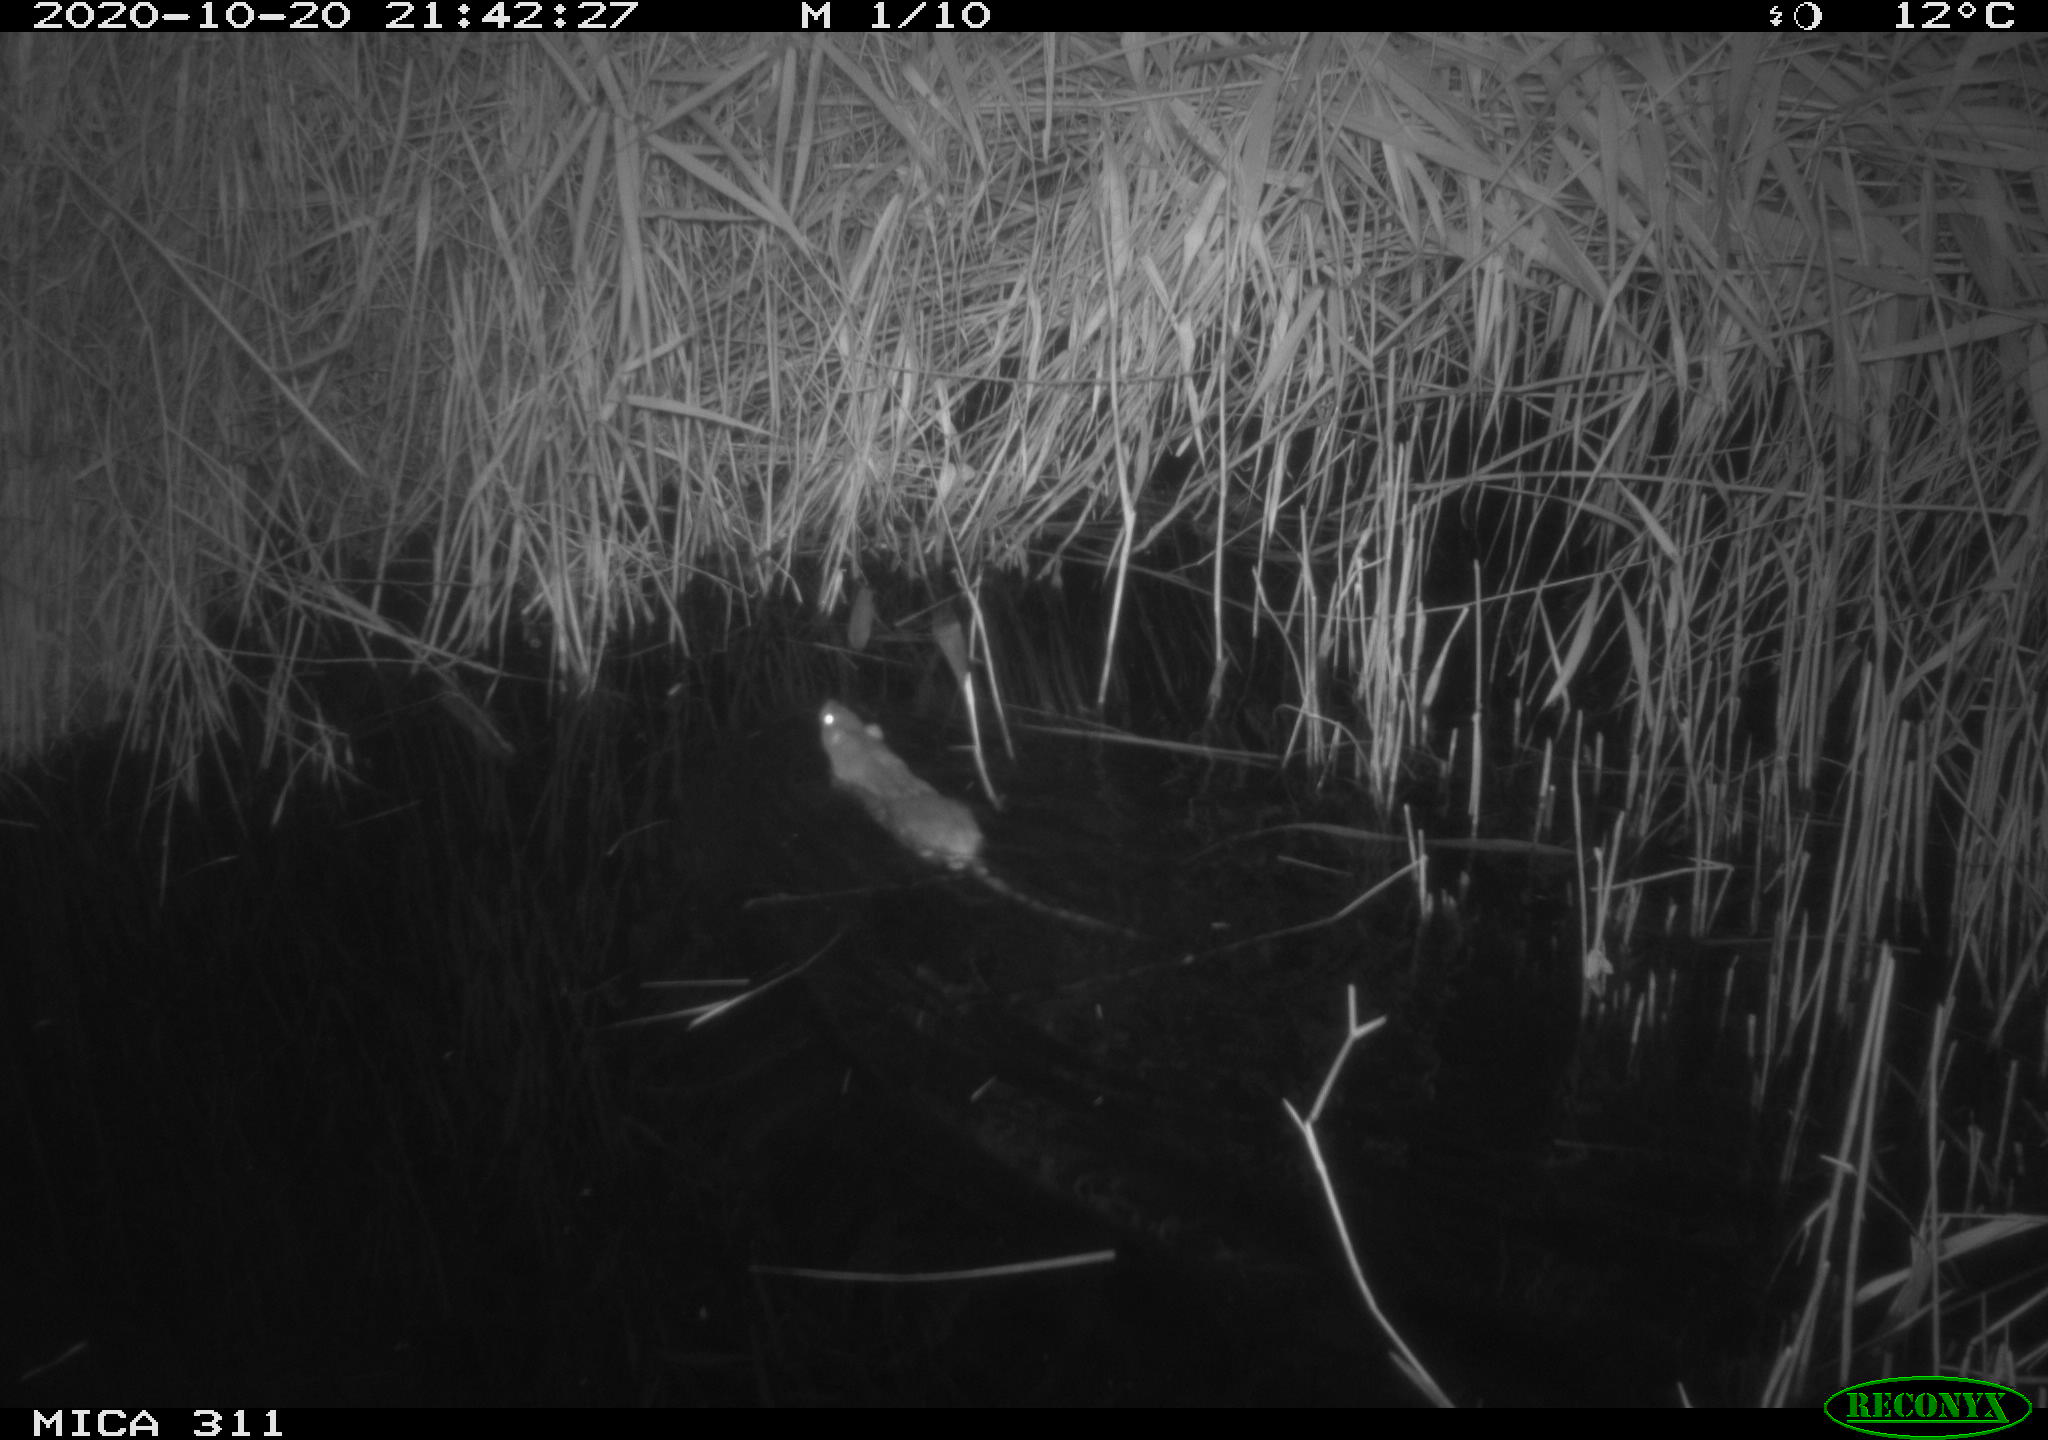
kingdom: Animalia
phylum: Chordata
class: Mammalia
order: Rodentia
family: Muridae
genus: Rattus
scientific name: Rattus norvegicus
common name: Brown rat
